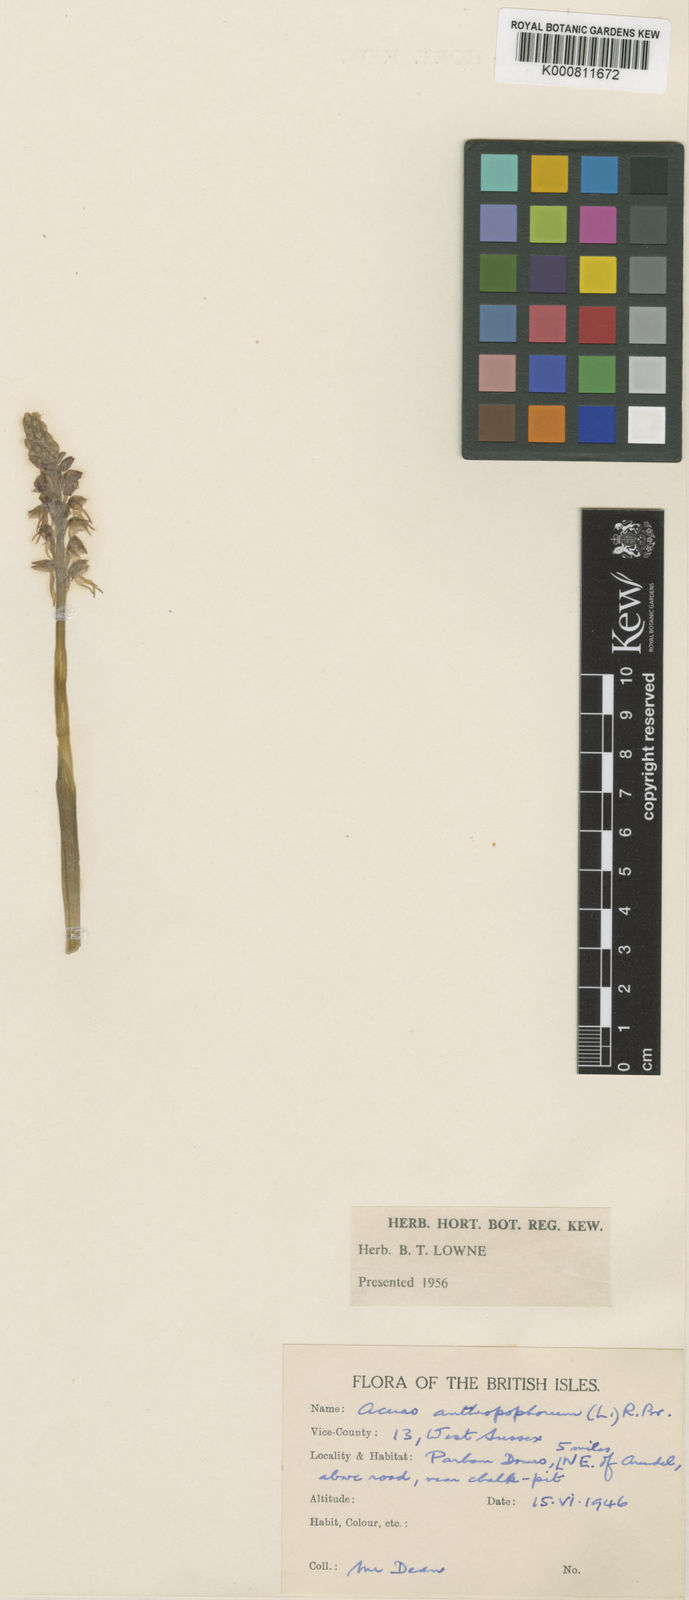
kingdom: Plantae
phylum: Tracheophyta
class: Liliopsida
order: Asparagales
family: Orchidaceae
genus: Orchis
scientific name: Orchis
